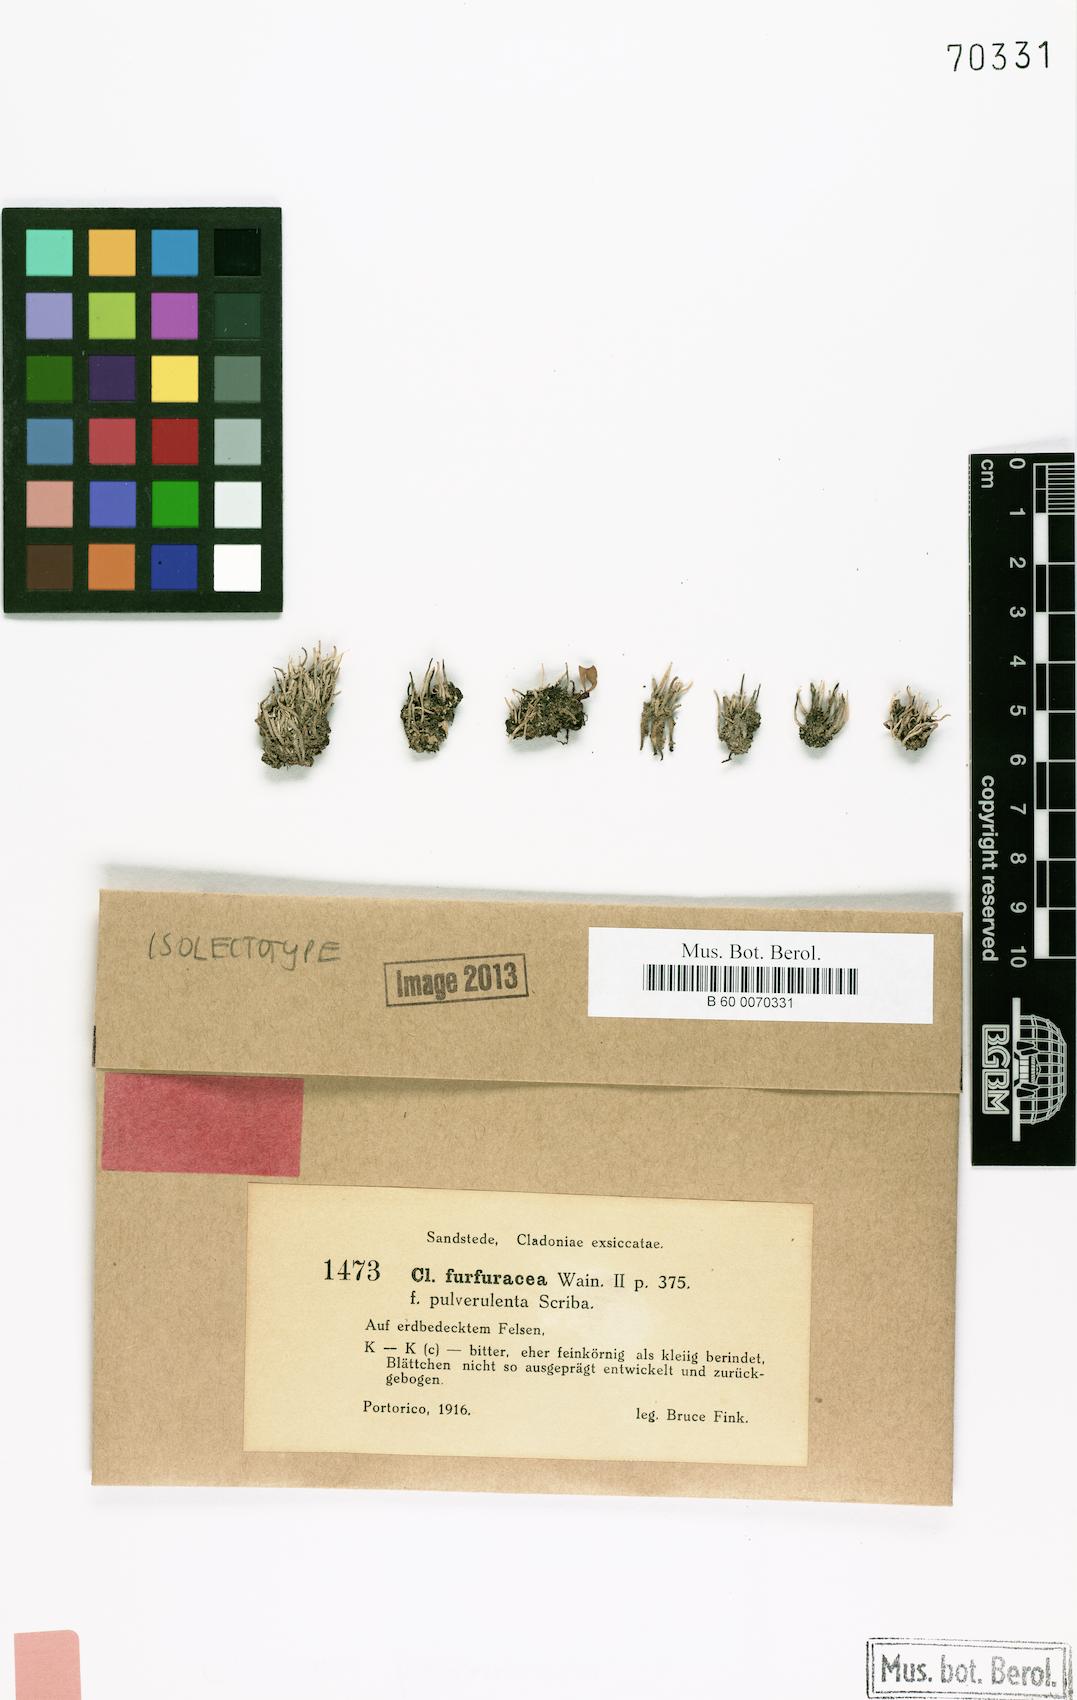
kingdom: Fungi
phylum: Ascomycota
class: Lecanoromycetes
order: Lecanorales
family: Cladoniaceae
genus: Cladonia
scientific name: Cladonia pulverulenta
